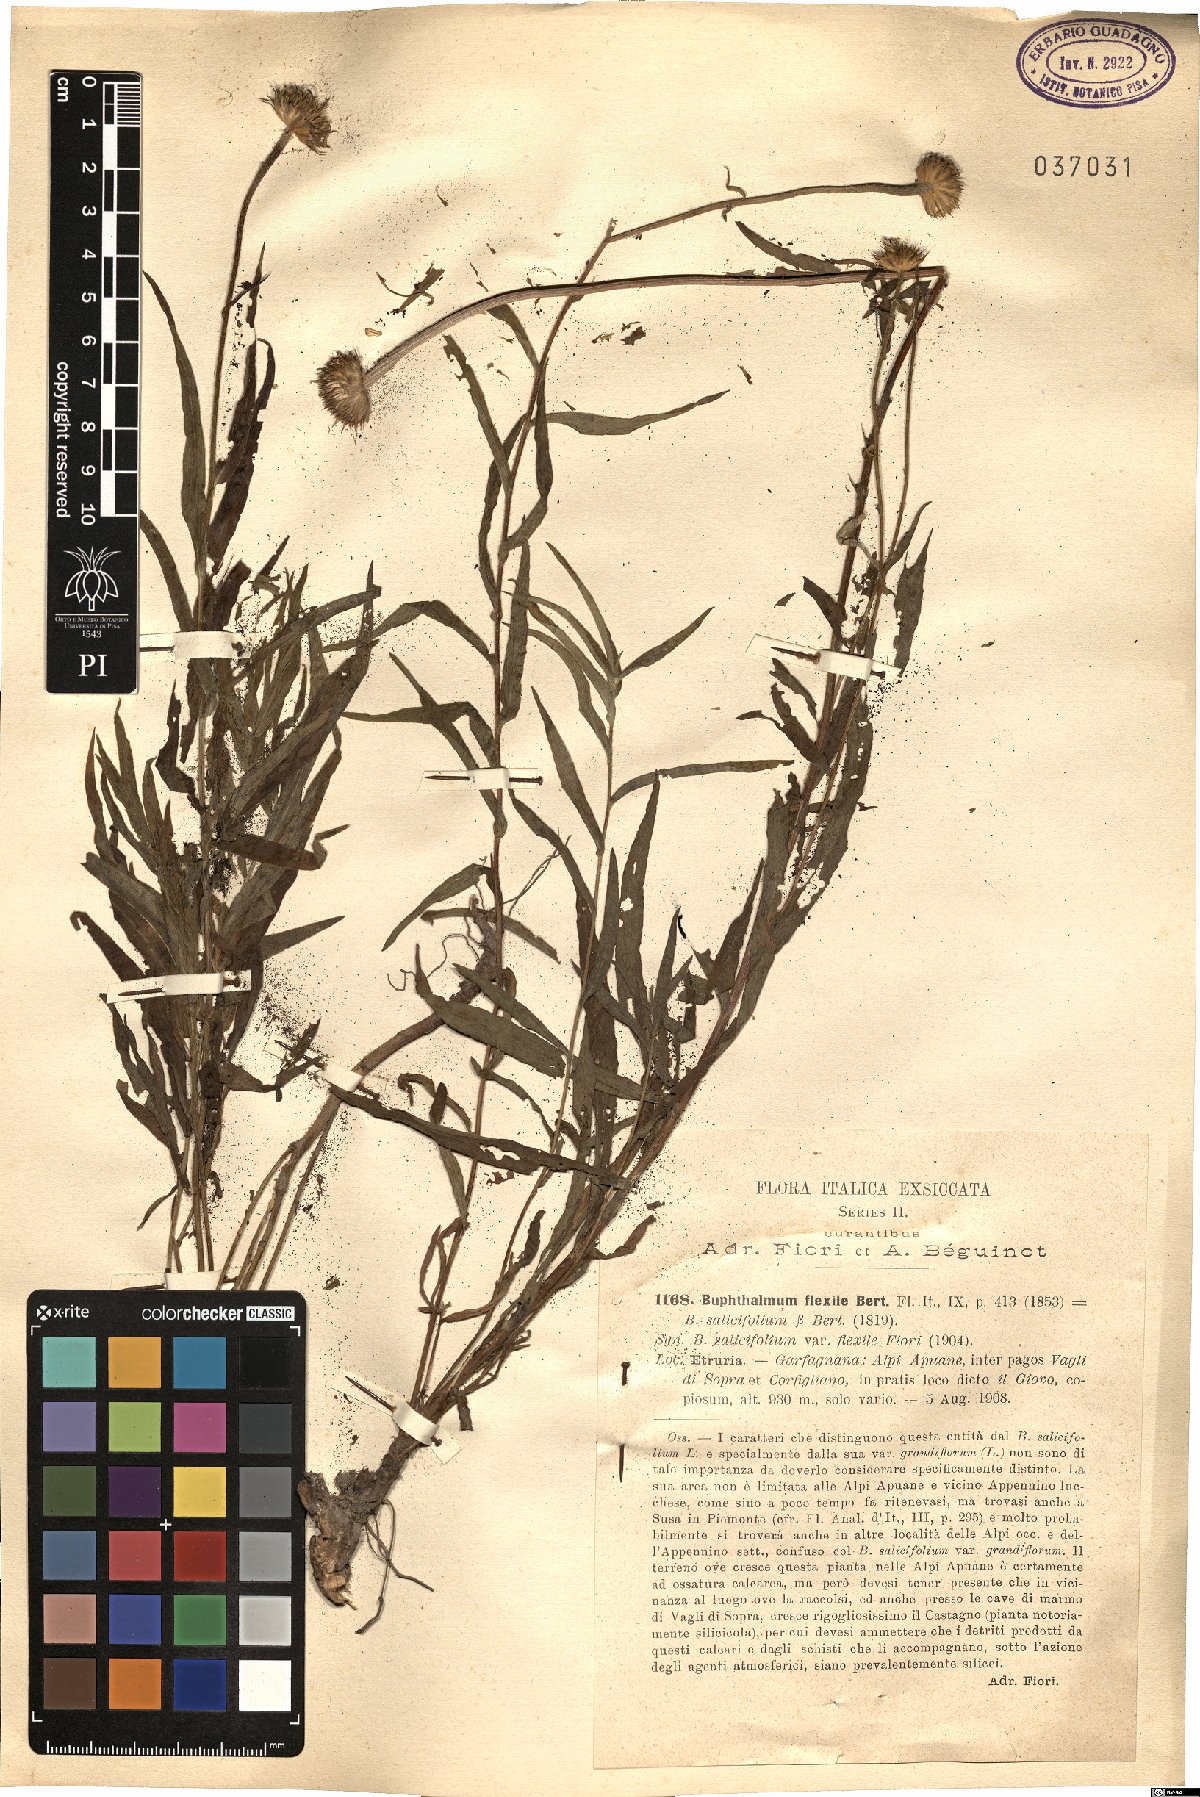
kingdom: Plantae
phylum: Tracheophyta
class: Magnoliopsida
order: Asterales
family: Asteraceae
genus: Buphthalmum
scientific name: Buphthalmum salicifolium
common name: Willow-leaved yellow-oxeye
